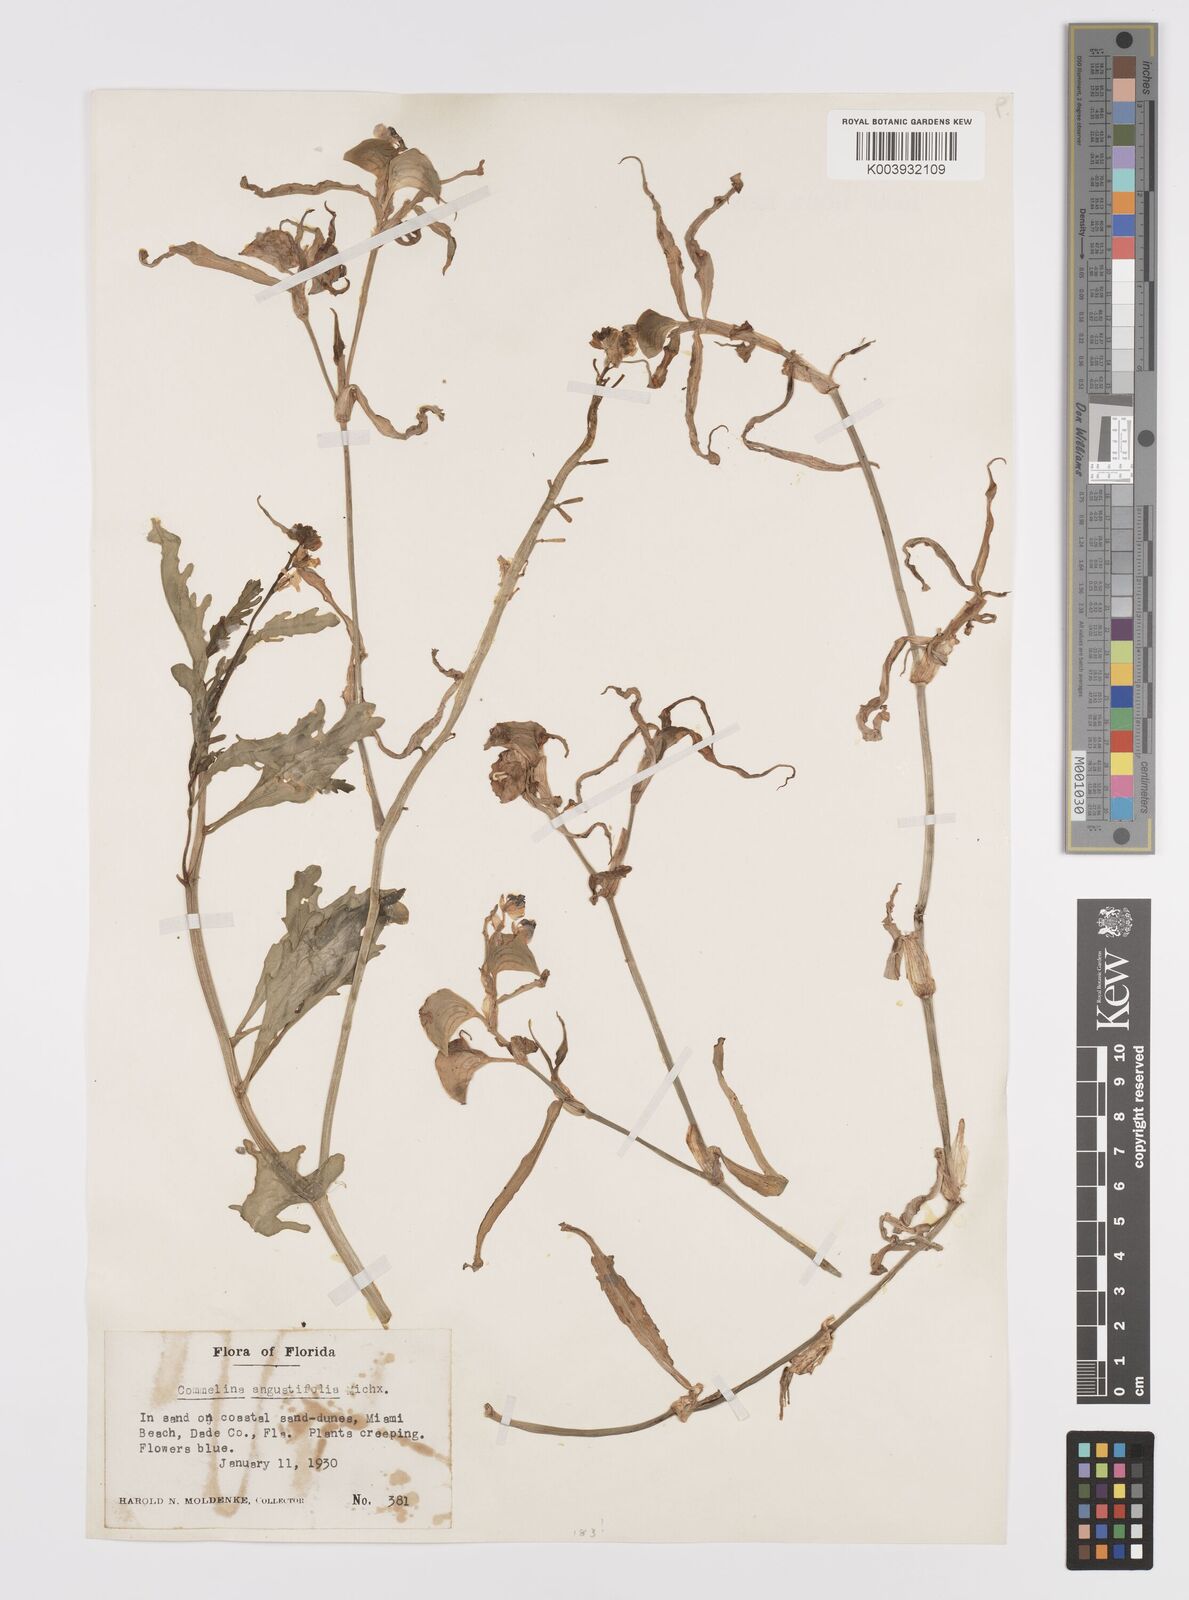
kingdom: Plantae
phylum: Tracheophyta
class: Liliopsida
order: Commelinales
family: Commelinaceae
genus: Commelina
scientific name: Commelina erecta
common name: Blousel blommetjie
